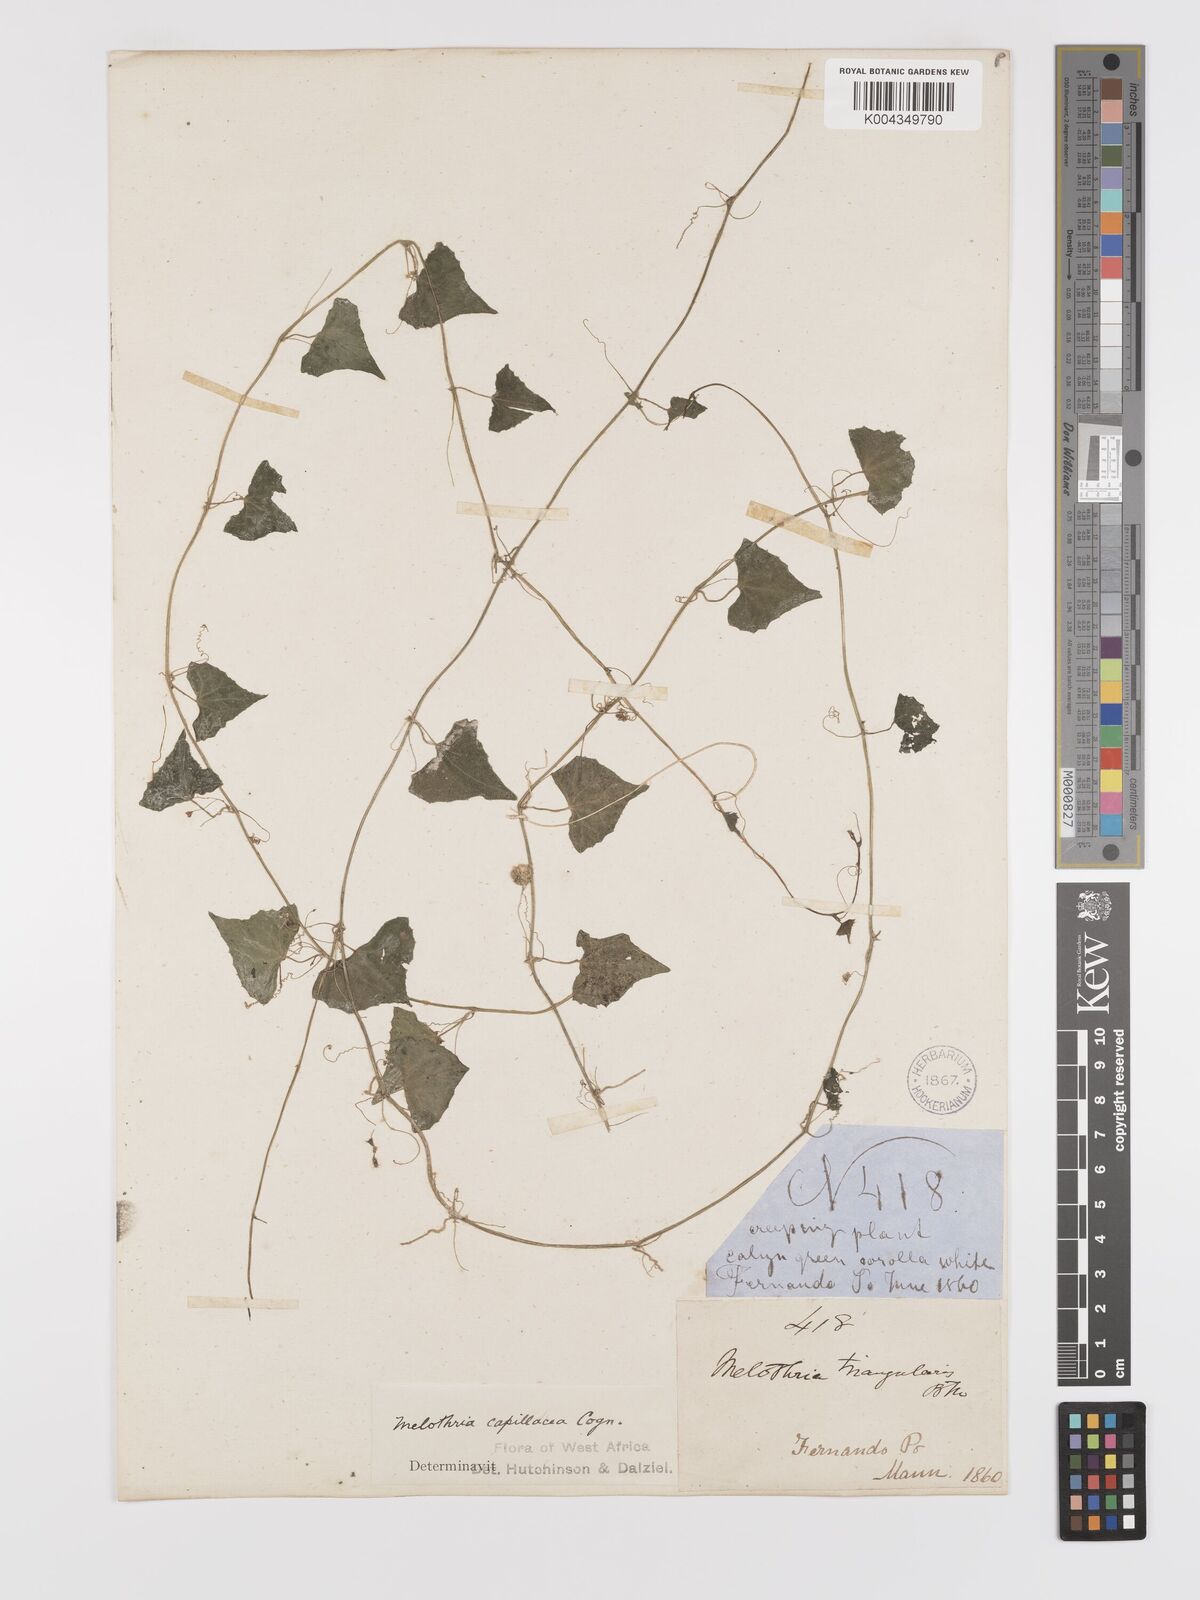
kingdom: Plantae
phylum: Tracheophyta
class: Magnoliopsida
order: Cucurbitales
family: Cucurbitaceae
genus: Zehneria
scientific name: Zehneria capillacea
